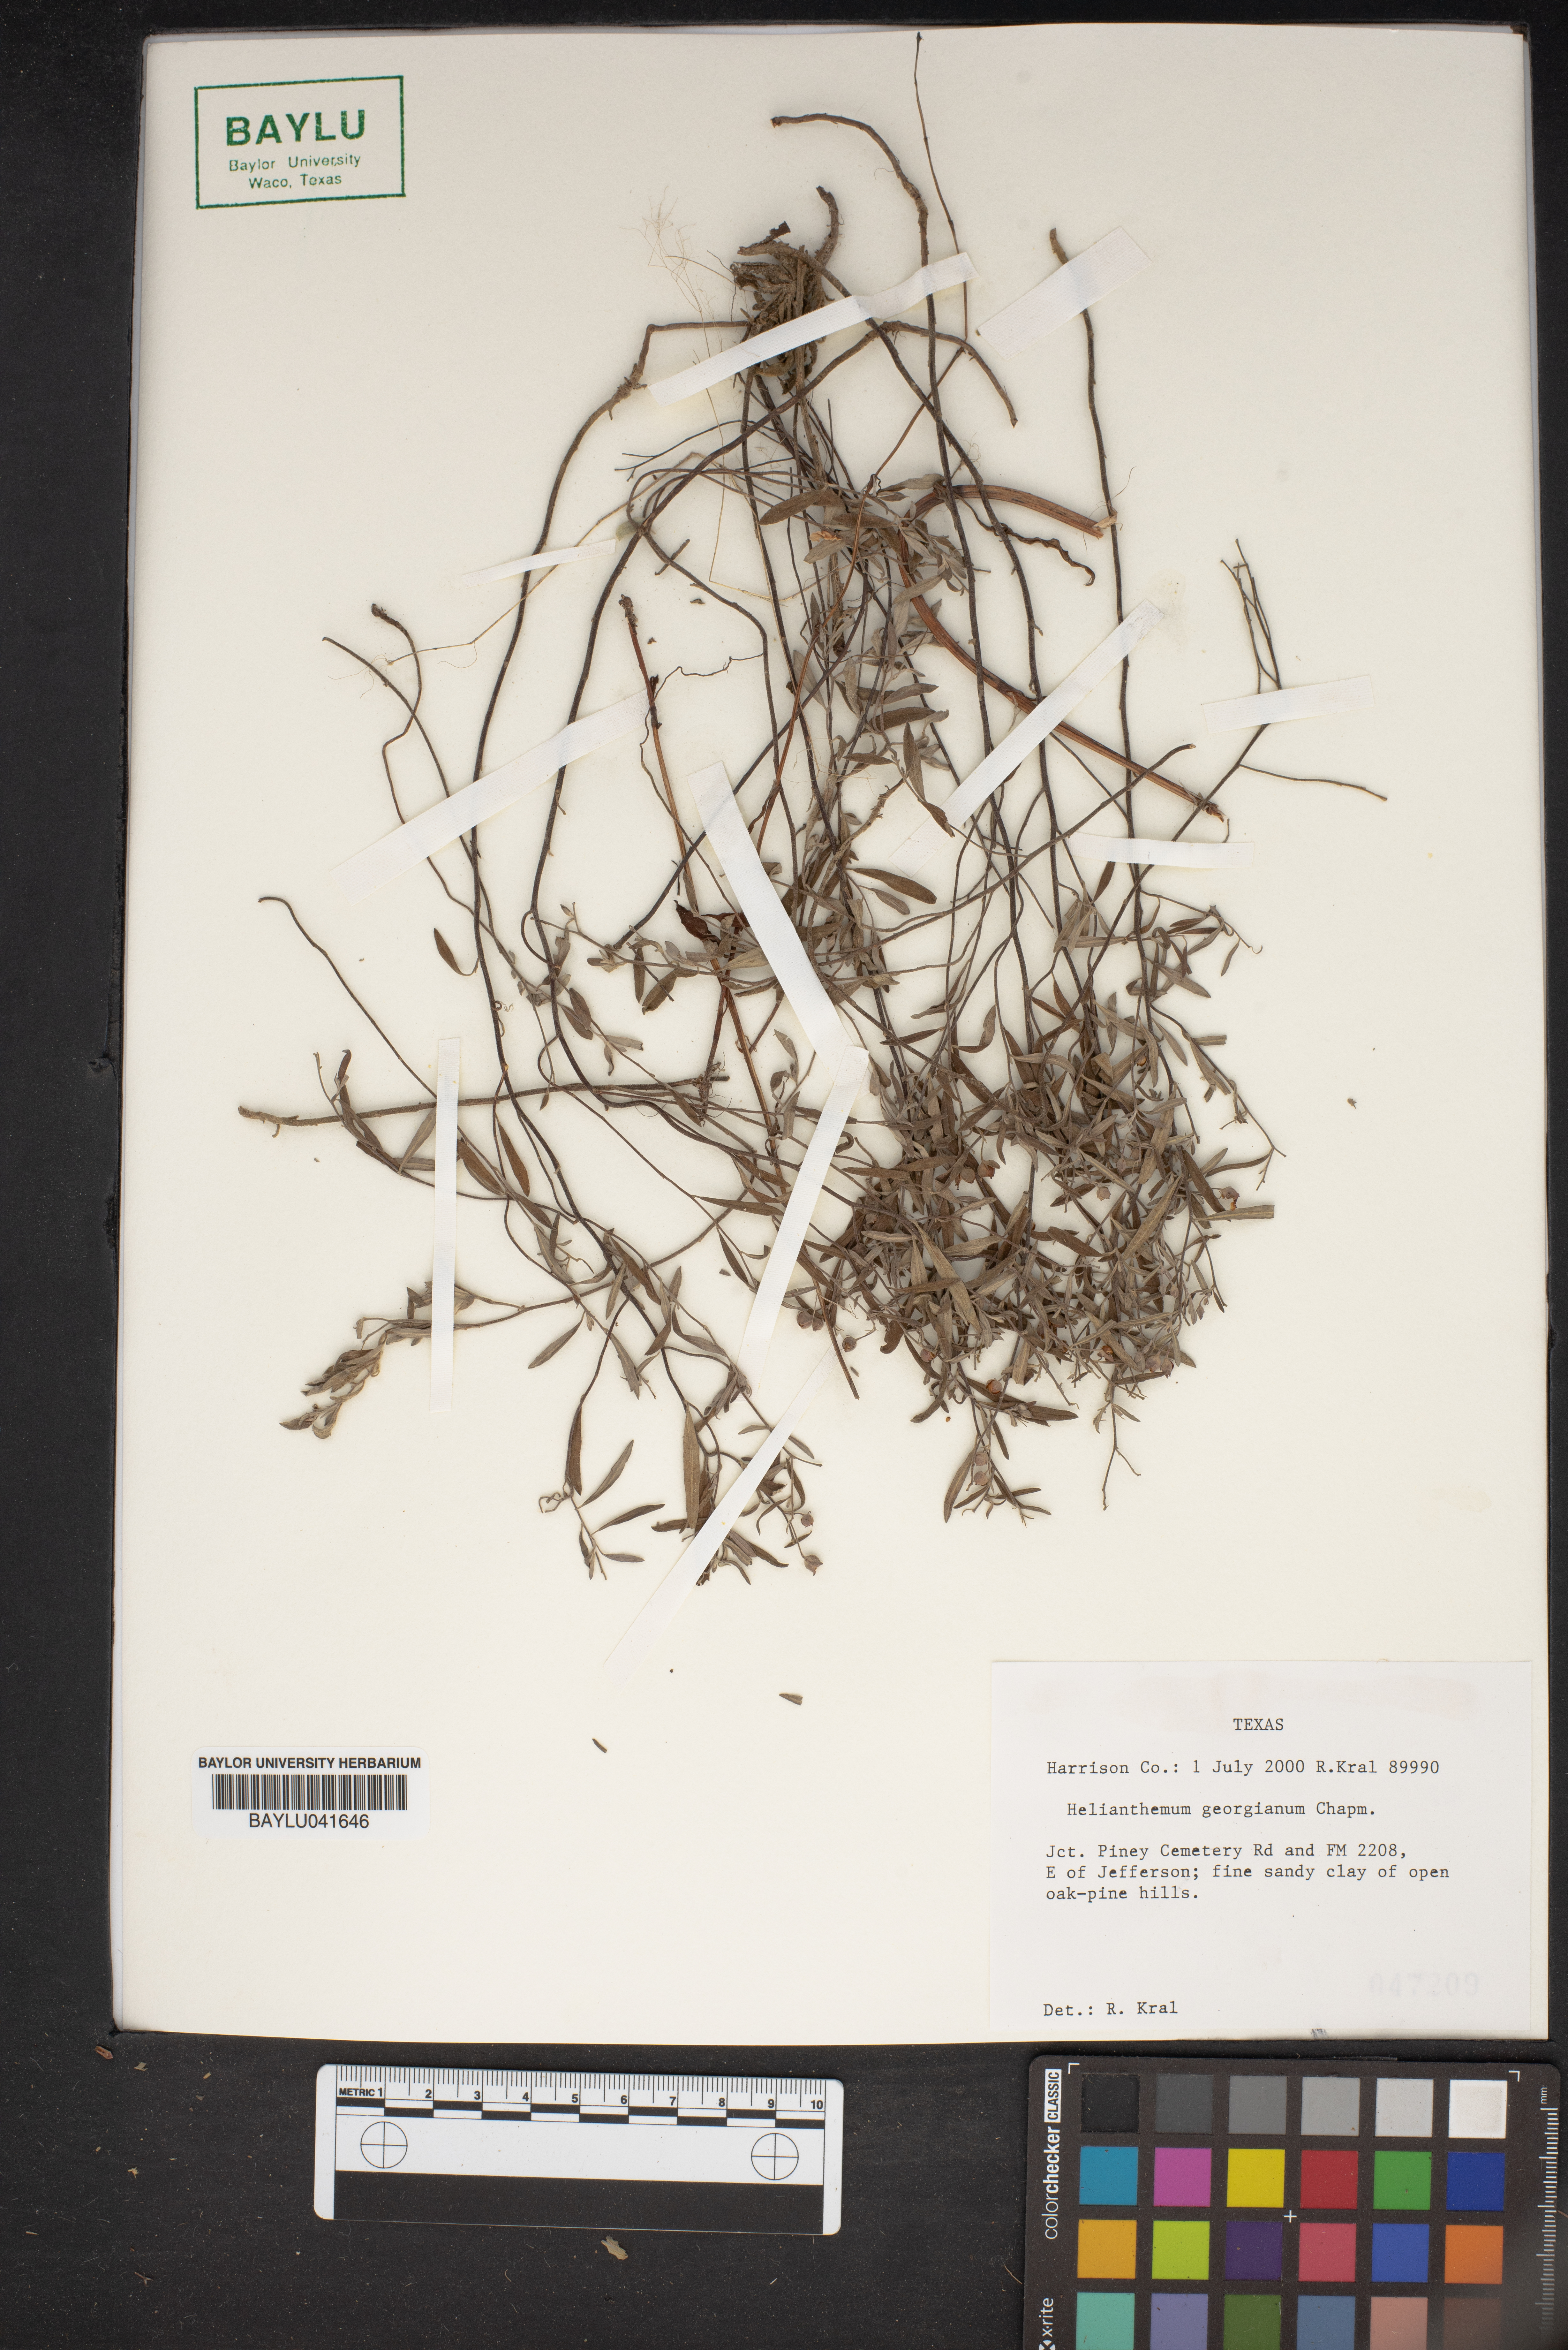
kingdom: Plantae
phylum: Tracheophyta
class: Magnoliopsida
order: Malvales
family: Cistaceae
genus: Crocanthemum
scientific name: Crocanthemum georgianum
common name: Georgia frostweed
